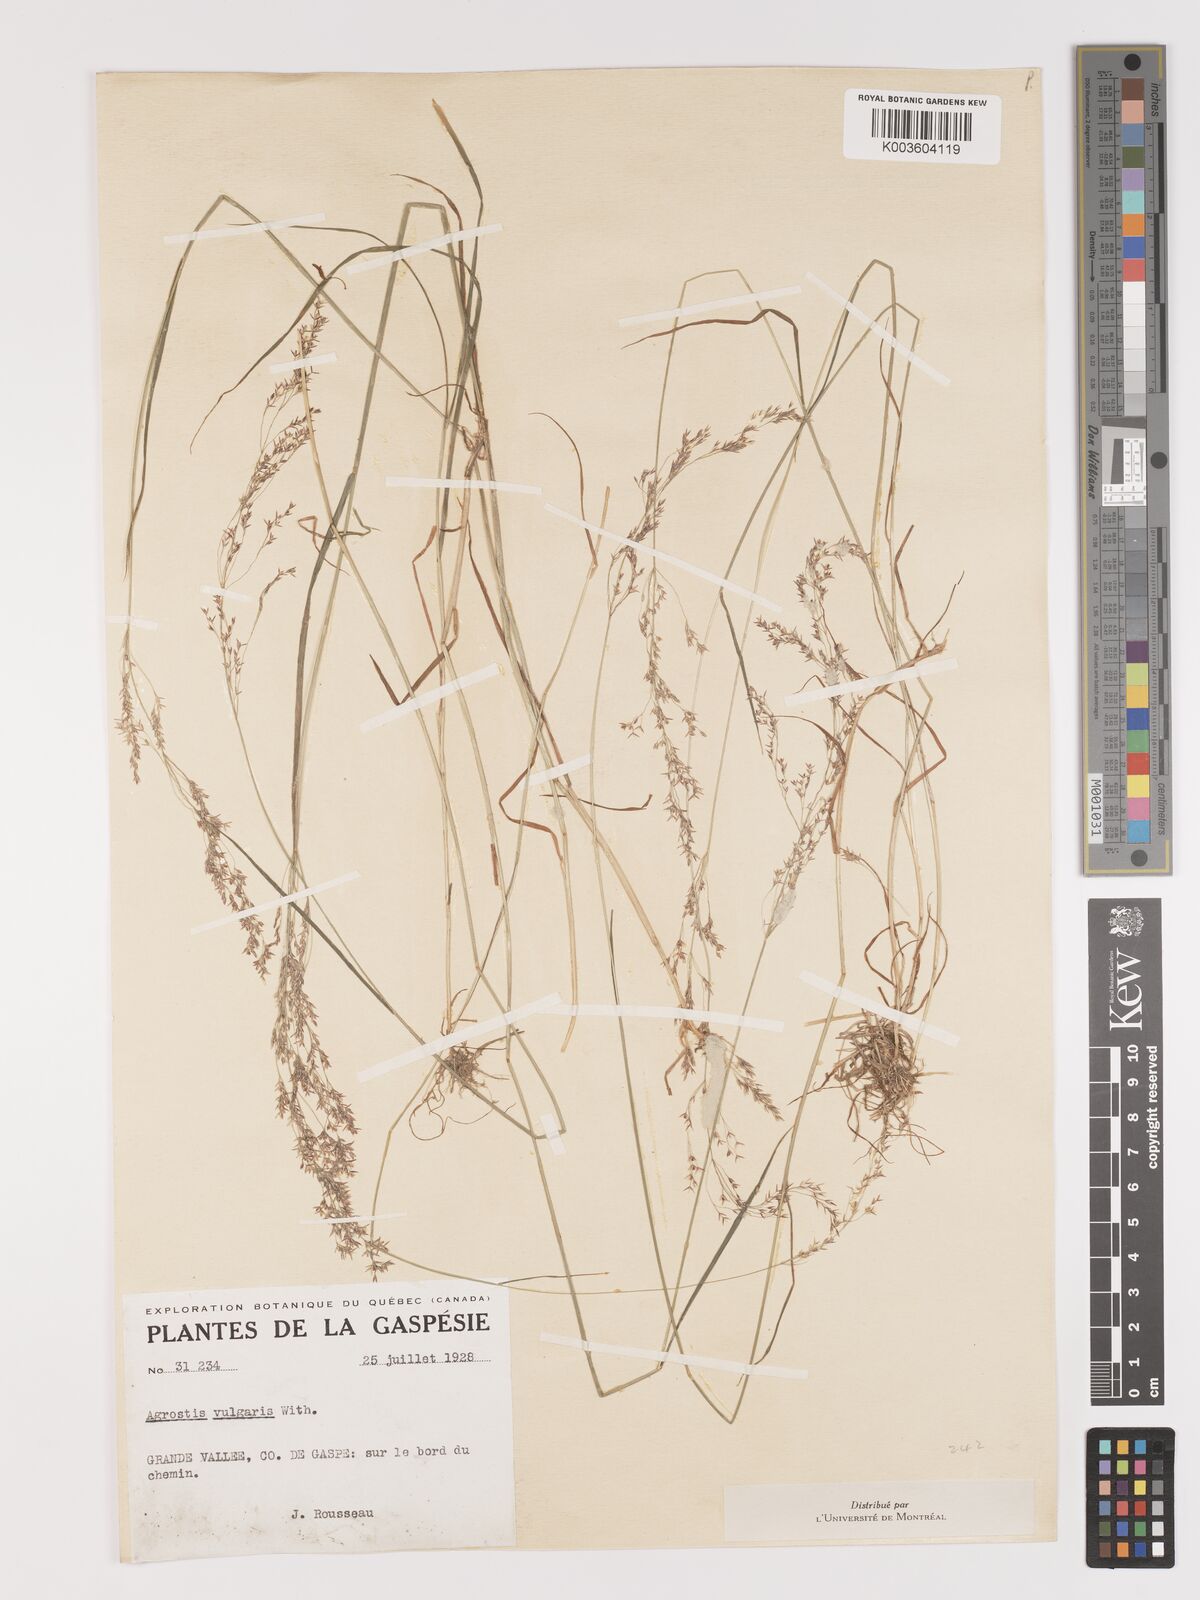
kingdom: Plantae
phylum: Tracheophyta
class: Liliopsida
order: Poales
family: Poaceae
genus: Agrostis
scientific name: Agrostis capillaris
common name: Colonial bentgrass
